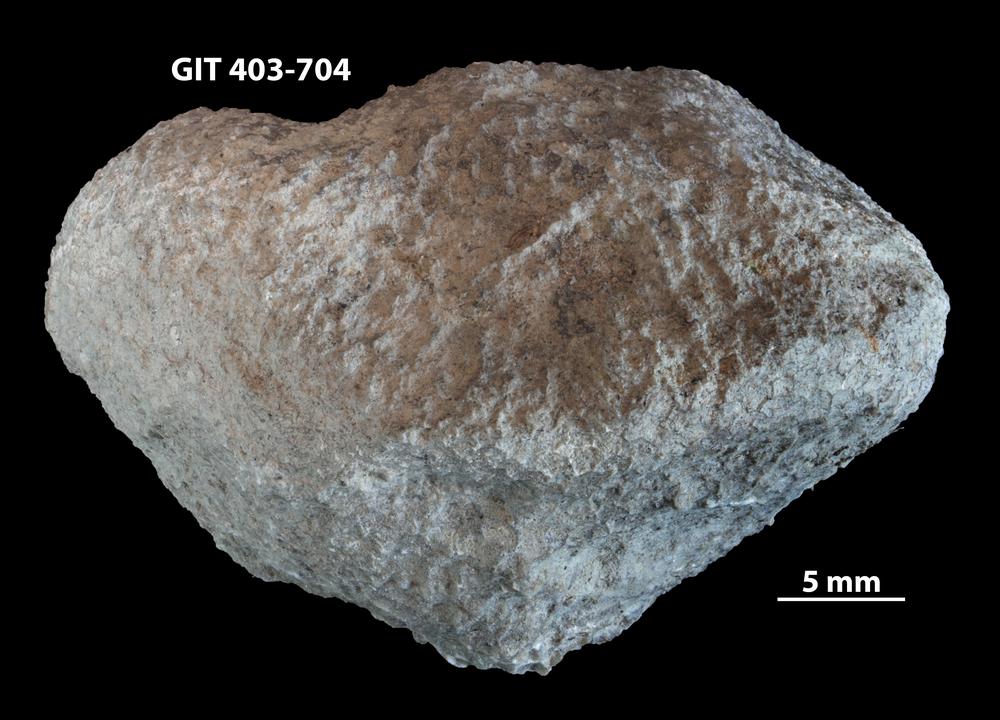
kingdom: Animalia
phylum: Cnidaria
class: Anthozoa
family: Favositidae
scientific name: Favositidae
